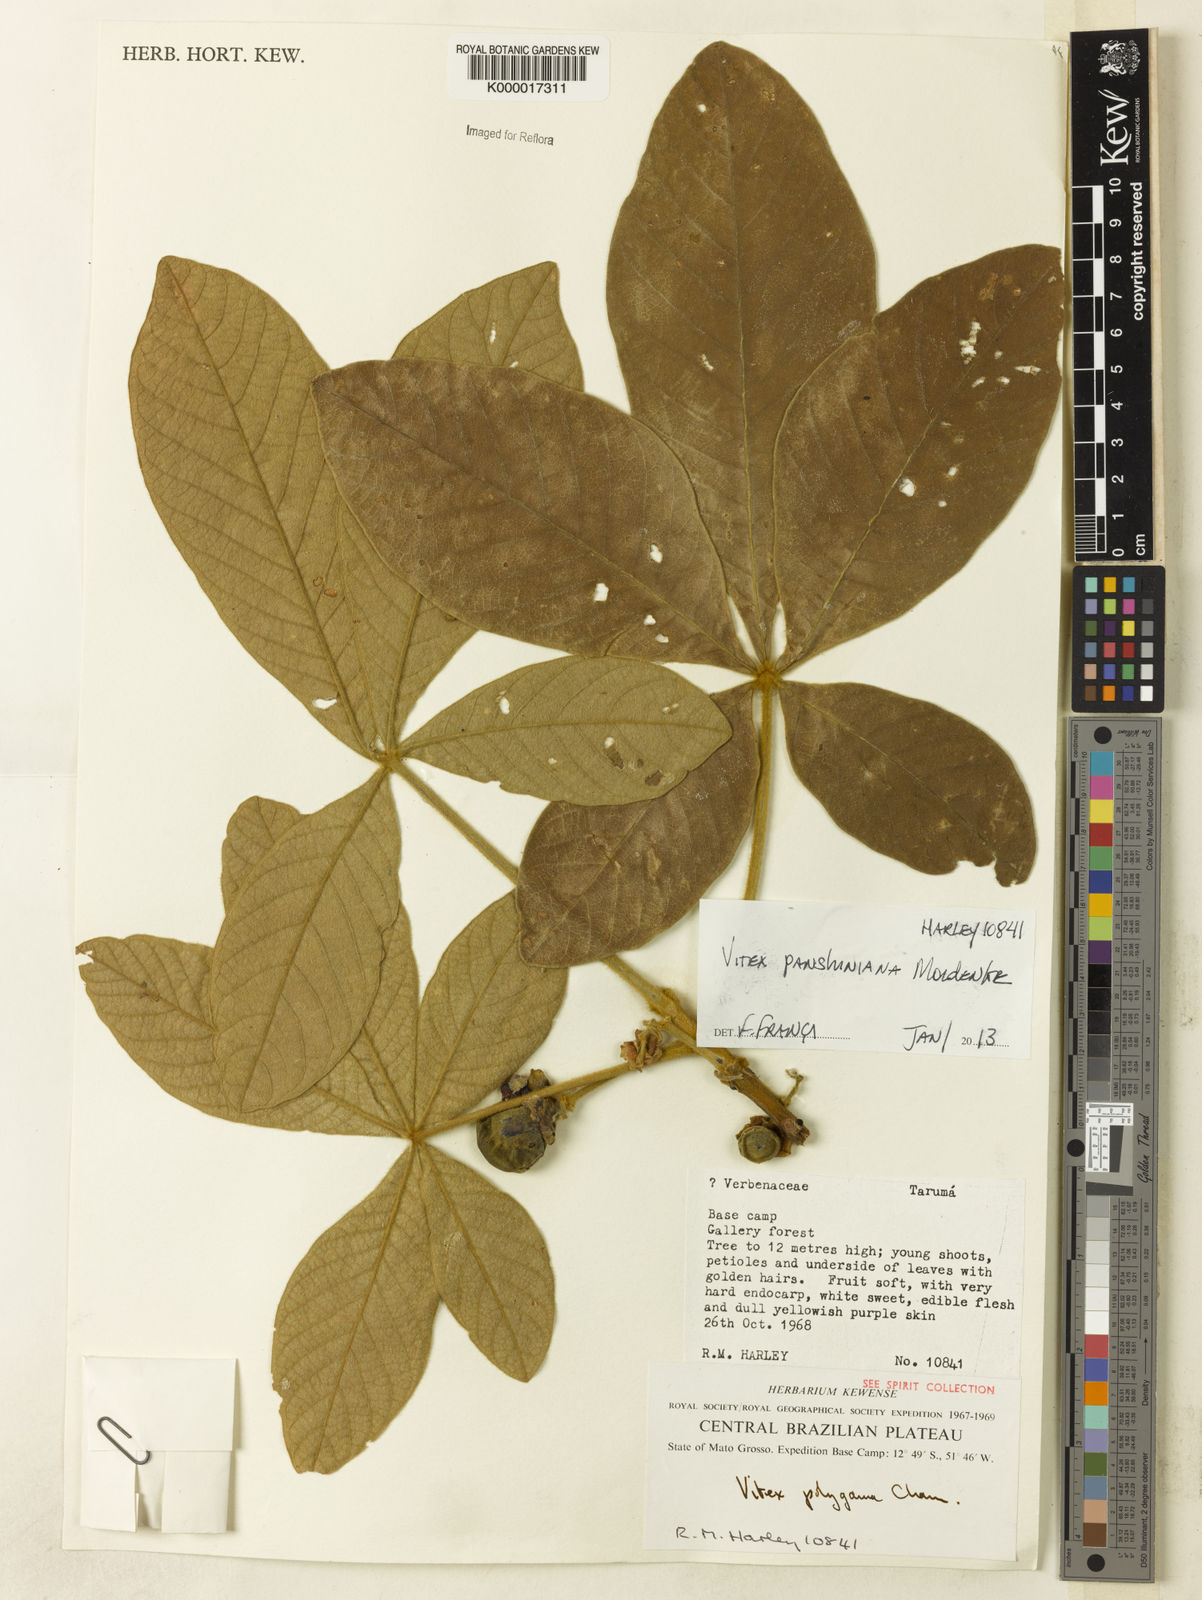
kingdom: Plantae
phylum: Tracheophyta
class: Magnoliopsida
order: Lamiales
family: Lamiaceae
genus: Vitex
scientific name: Vitex panshiniana
